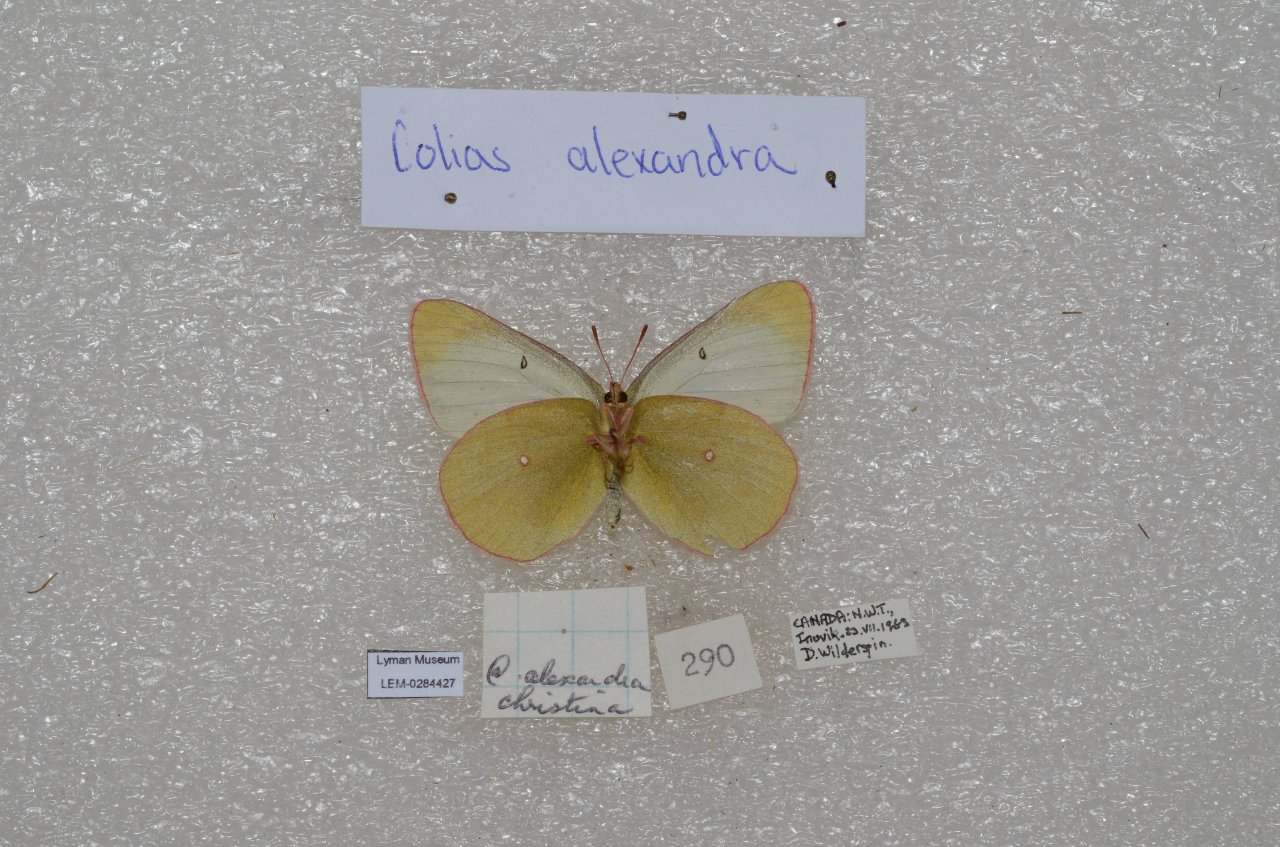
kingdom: Animalia
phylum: Arthropoda
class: Insecta
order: Lepidoptera
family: Pieridae
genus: Colias
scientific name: Colias
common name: Clouded Yellows
